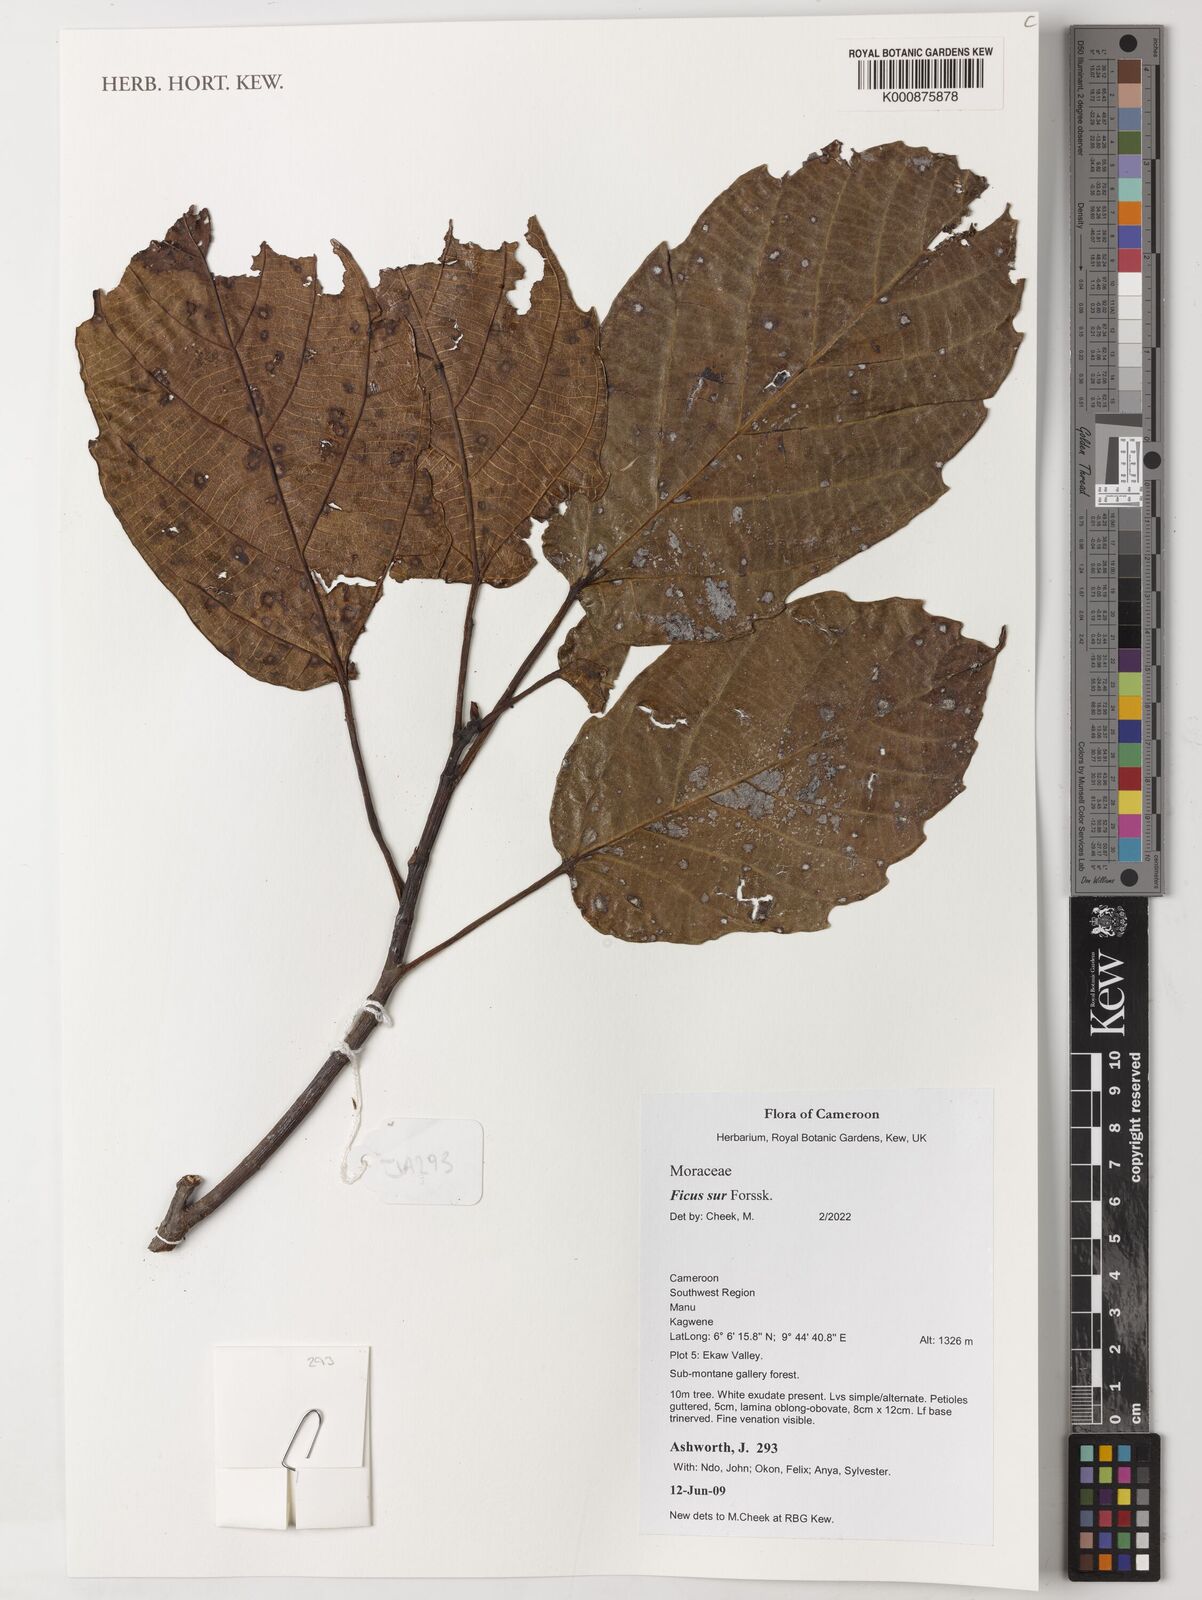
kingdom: Plantae
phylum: Tracheophyta
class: Magnoliopsida
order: Rosales
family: Moraceae
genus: Ficus
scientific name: Ficus sur
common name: Cape fig
